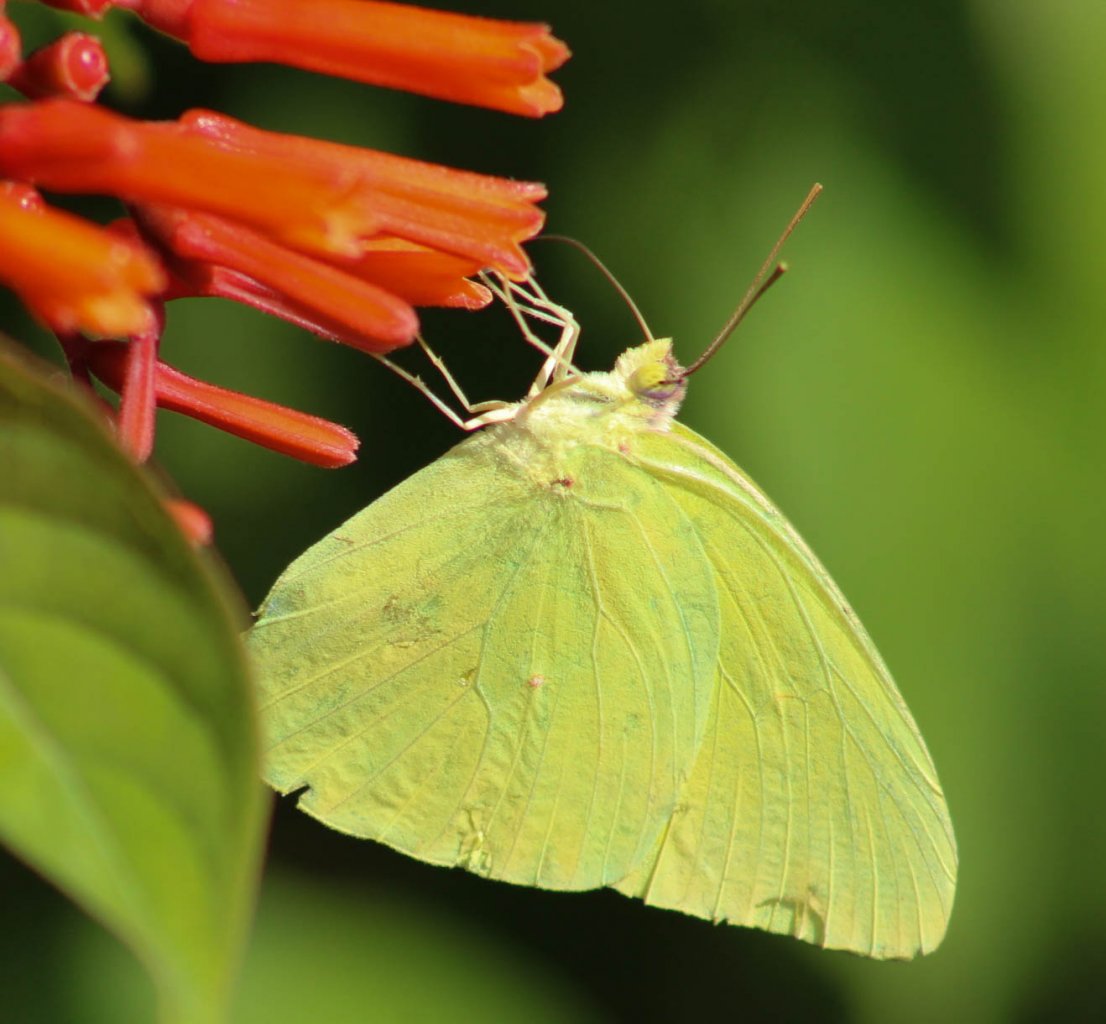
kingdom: Animalia
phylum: Arthropoda
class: Insecta
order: Lepidoptera
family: Pieridae
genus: Phoebis
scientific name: Phoebis sennae
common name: Cloudless Sulphur
